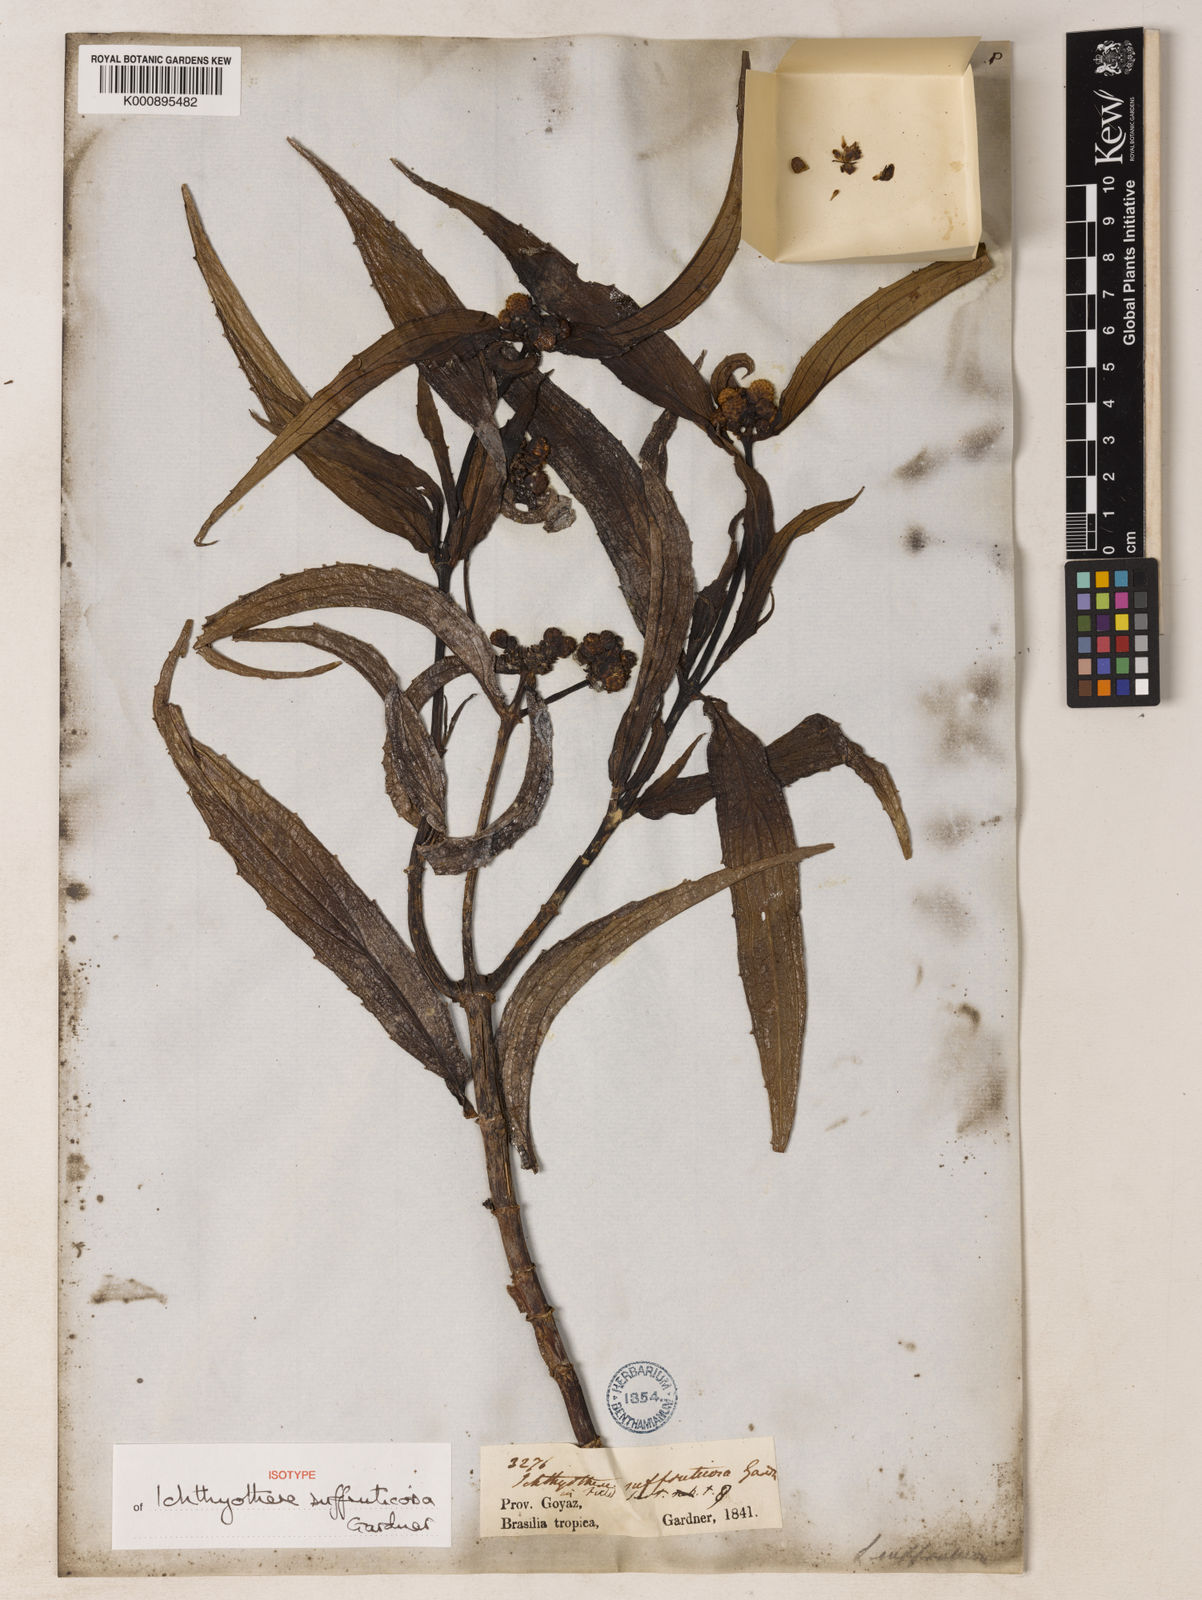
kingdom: Plantae
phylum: Tracheophyta
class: Magnoliopsida
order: Asterales
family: Asteraceae
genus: Ichthyothere
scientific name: Ichthyothere suffruticosa
